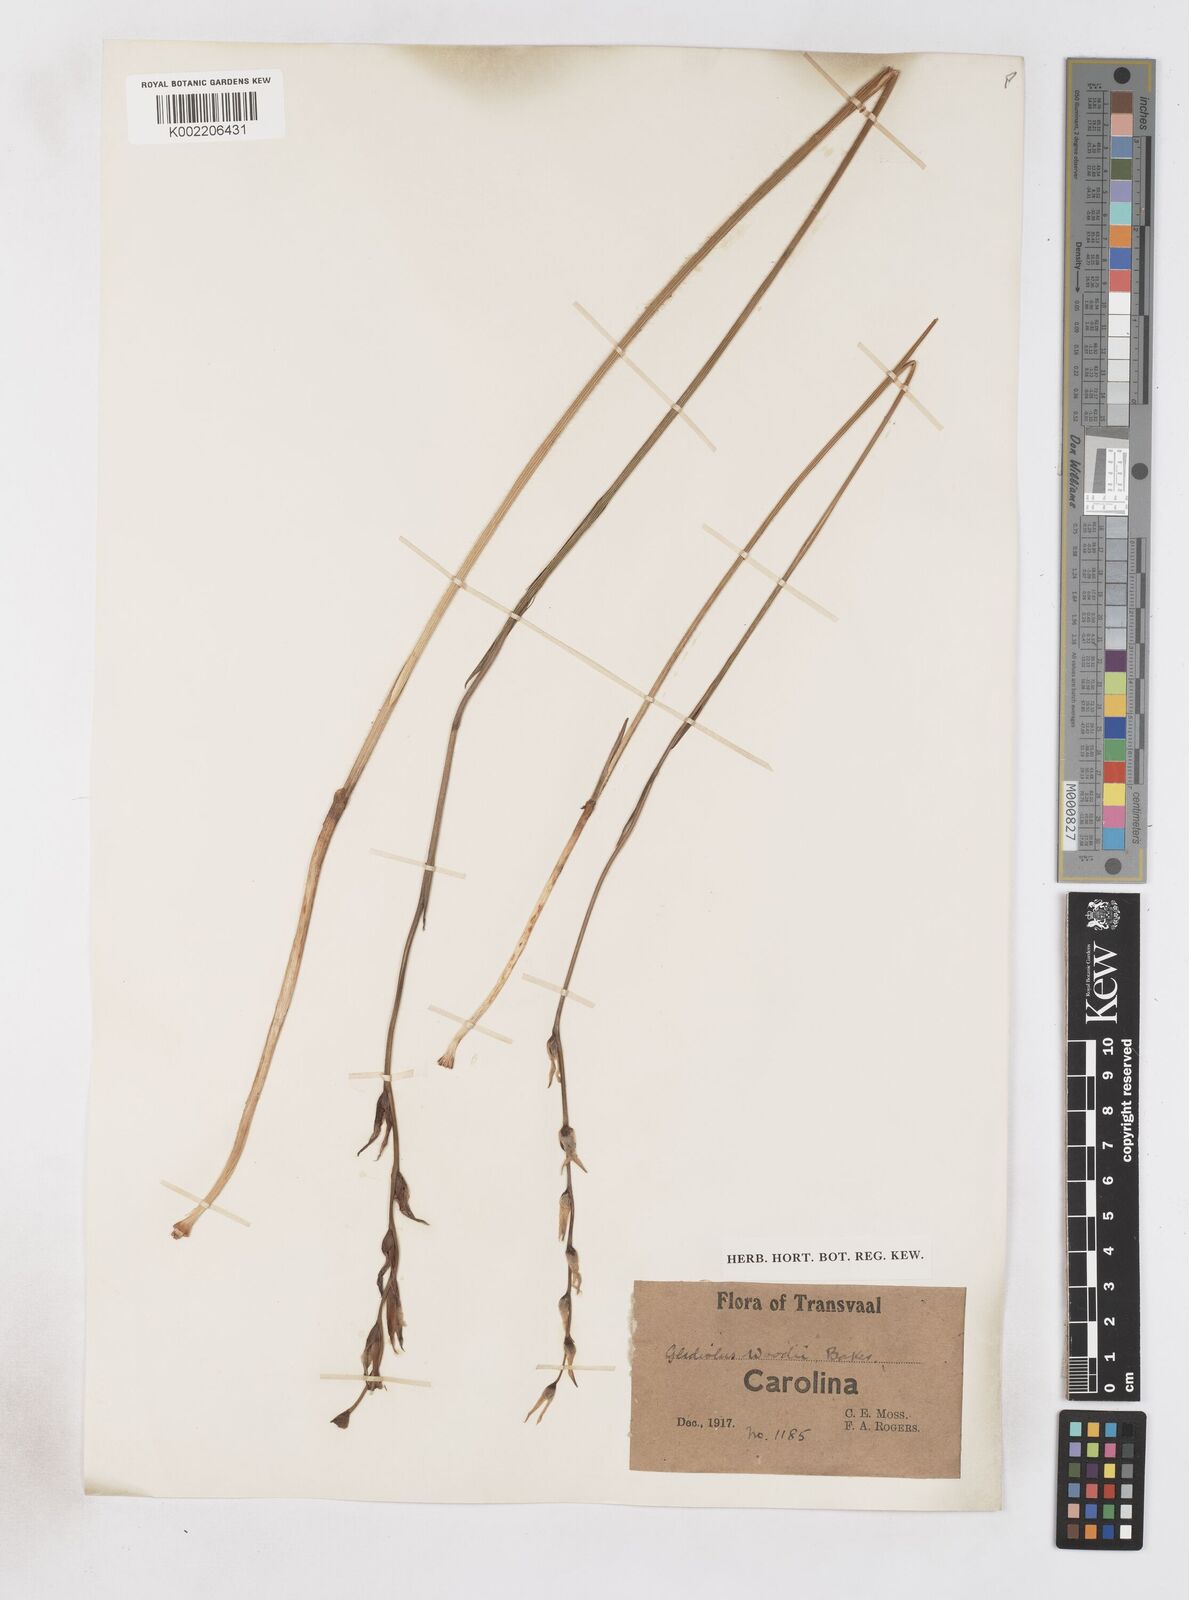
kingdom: Plantae
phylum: Tracheophyta
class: Liliopsida
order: Asparagales
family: Iridaceae
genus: Gladiolus
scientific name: Gladiolus woodii
